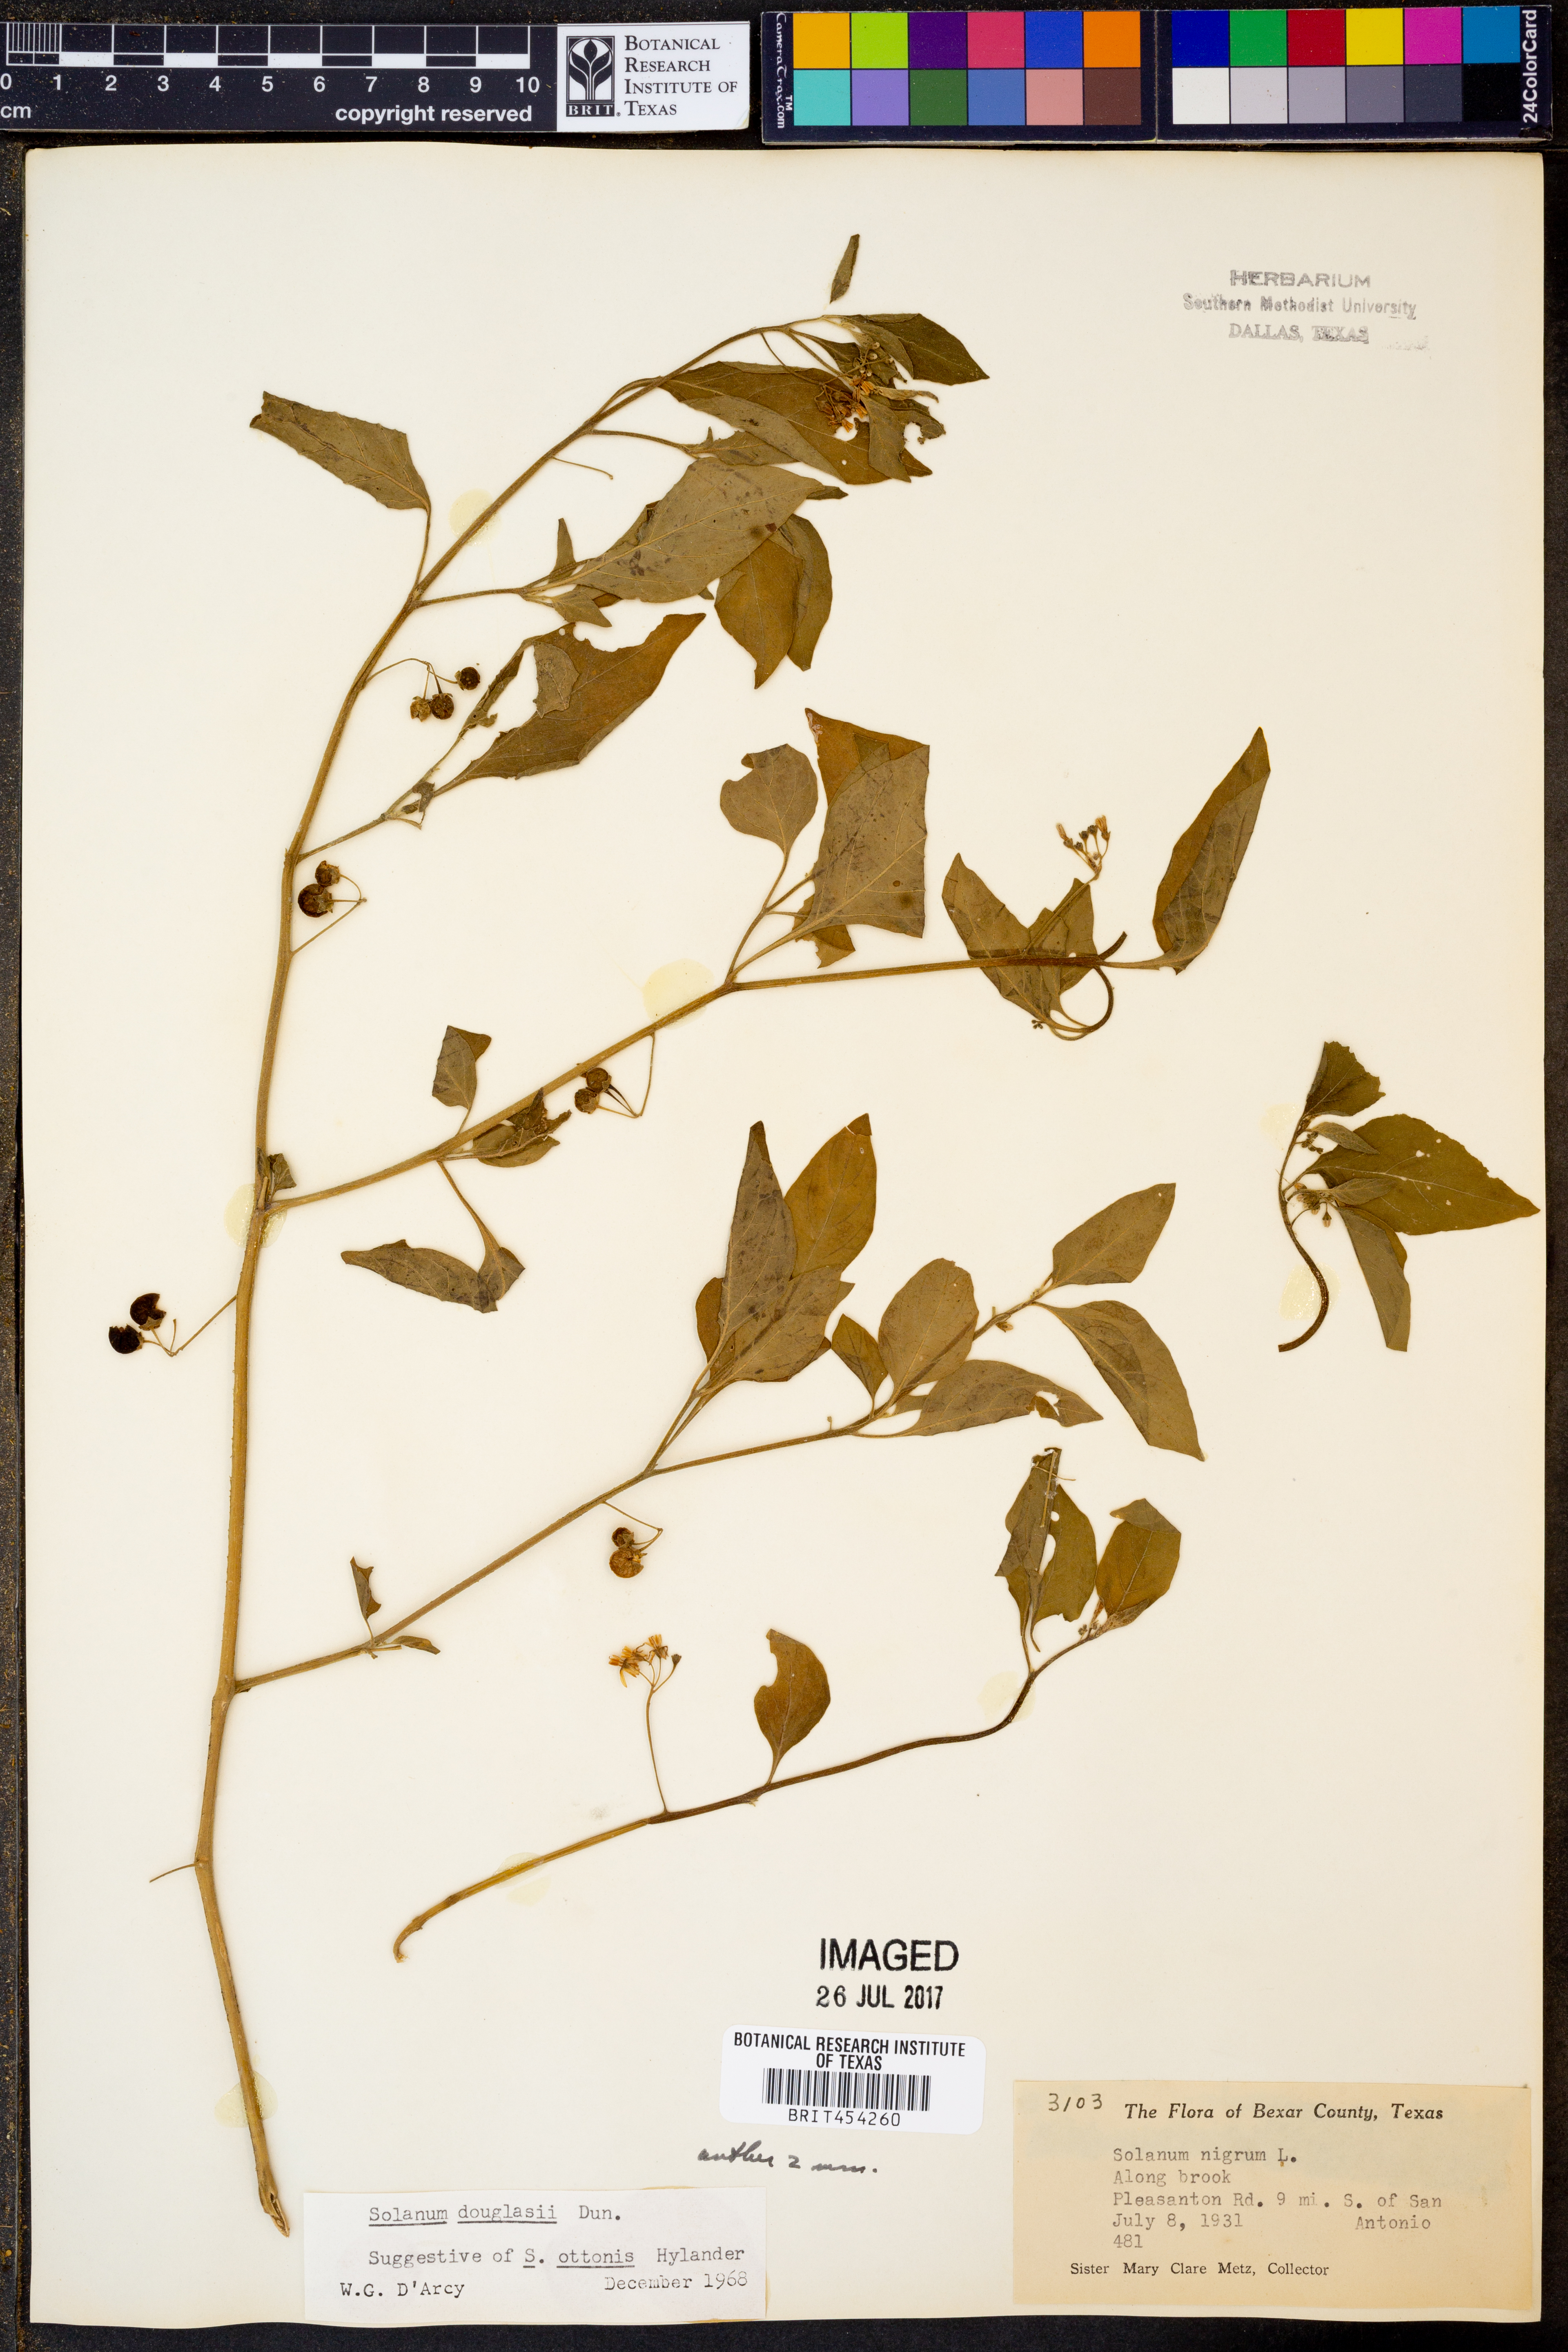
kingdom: Plantae
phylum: Tracheophyta
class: Magnoliopsida
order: Solanales
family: Solanaceae
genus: Solanum
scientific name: Solanum douglasii
